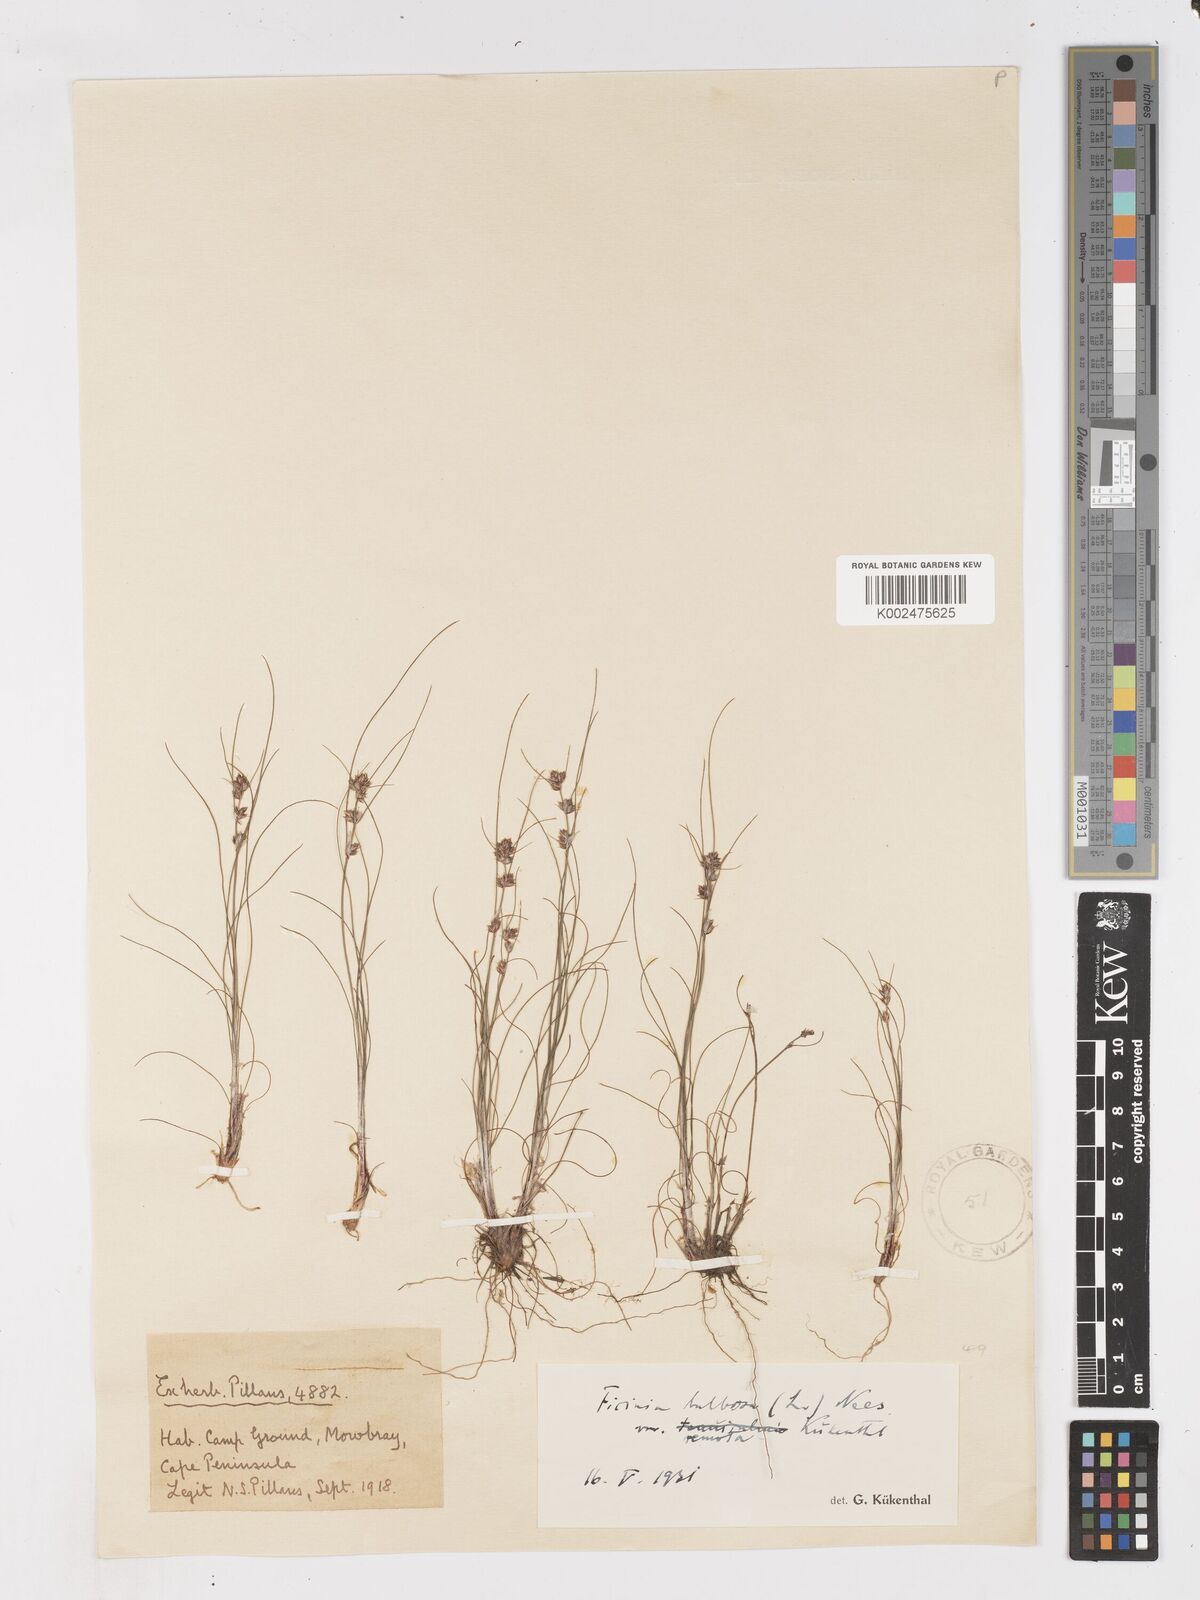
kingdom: Plantae
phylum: Tracheophyta
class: Liliopsida
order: Poales
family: Cyperaceae
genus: Ficinia
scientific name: Ficinia bulbosa
